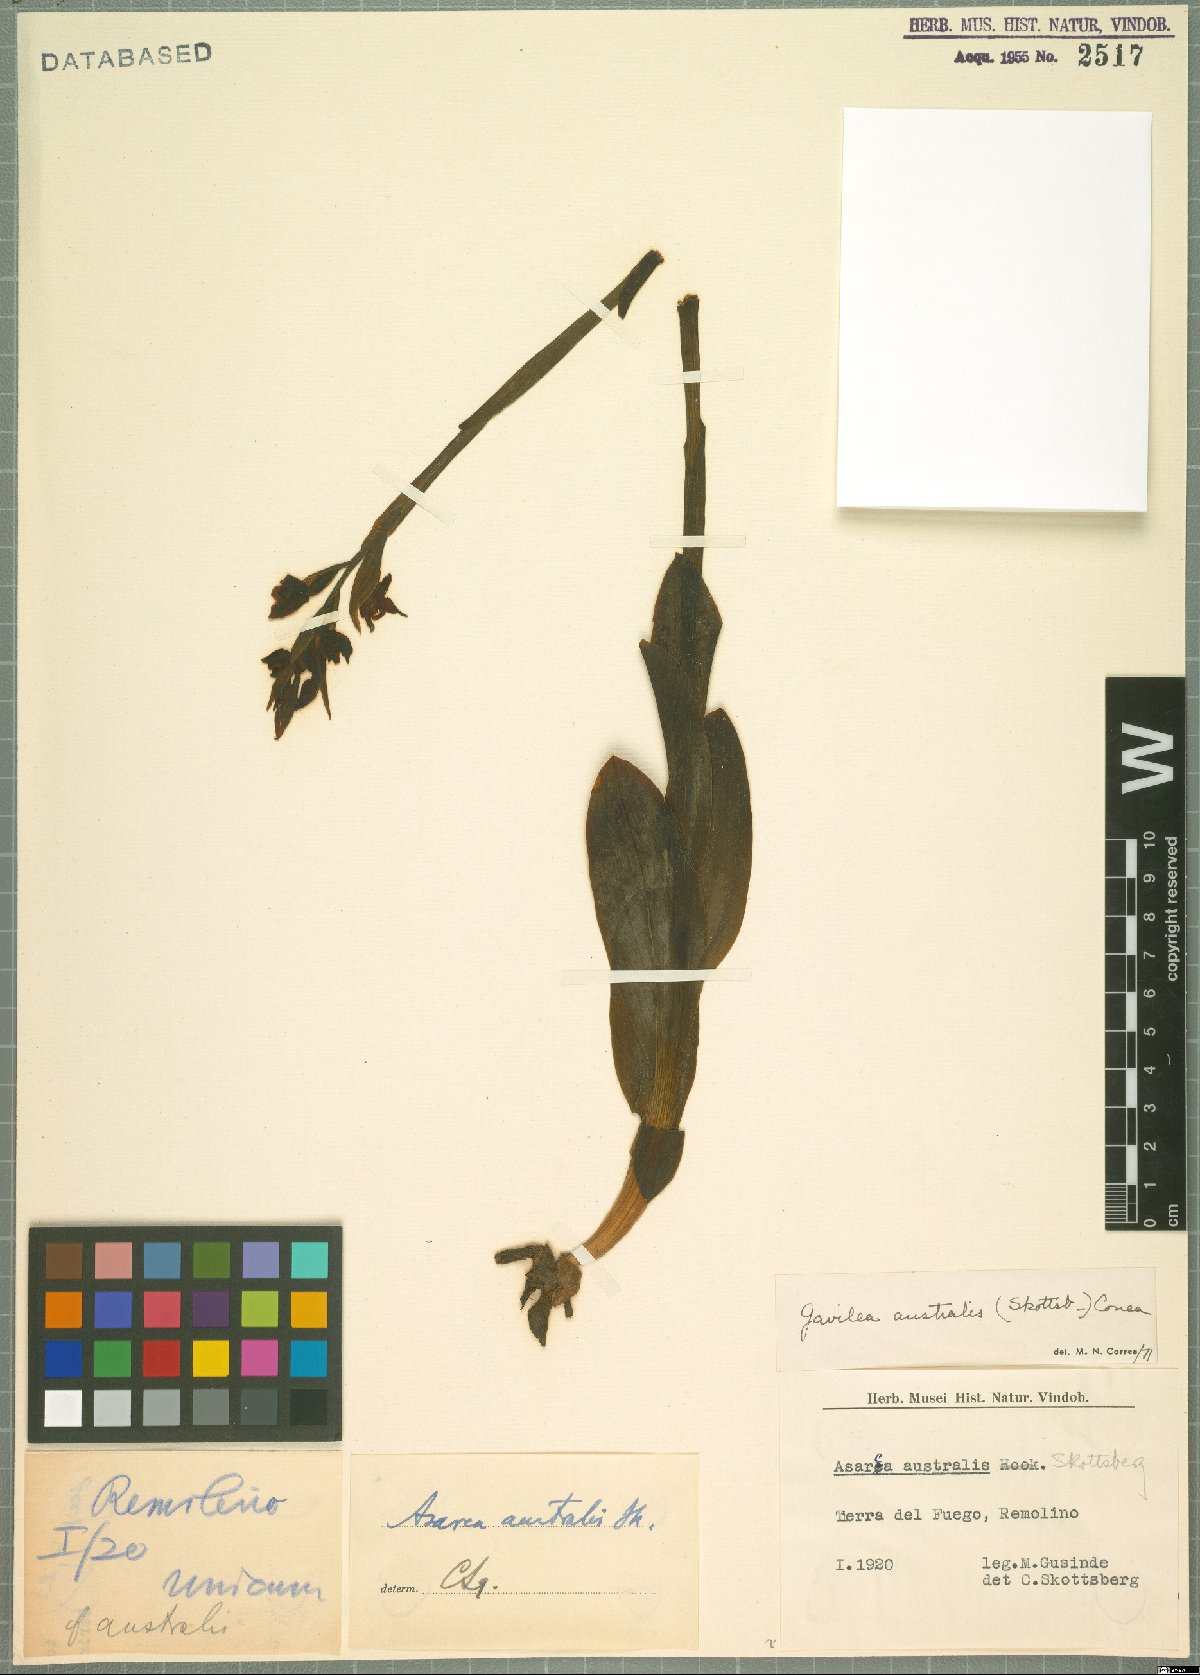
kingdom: Plantae
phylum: Tracheophyta
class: Liliopsida
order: Asparagales
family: Orchidaceae
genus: Gavilea
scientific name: Gavilea australis
